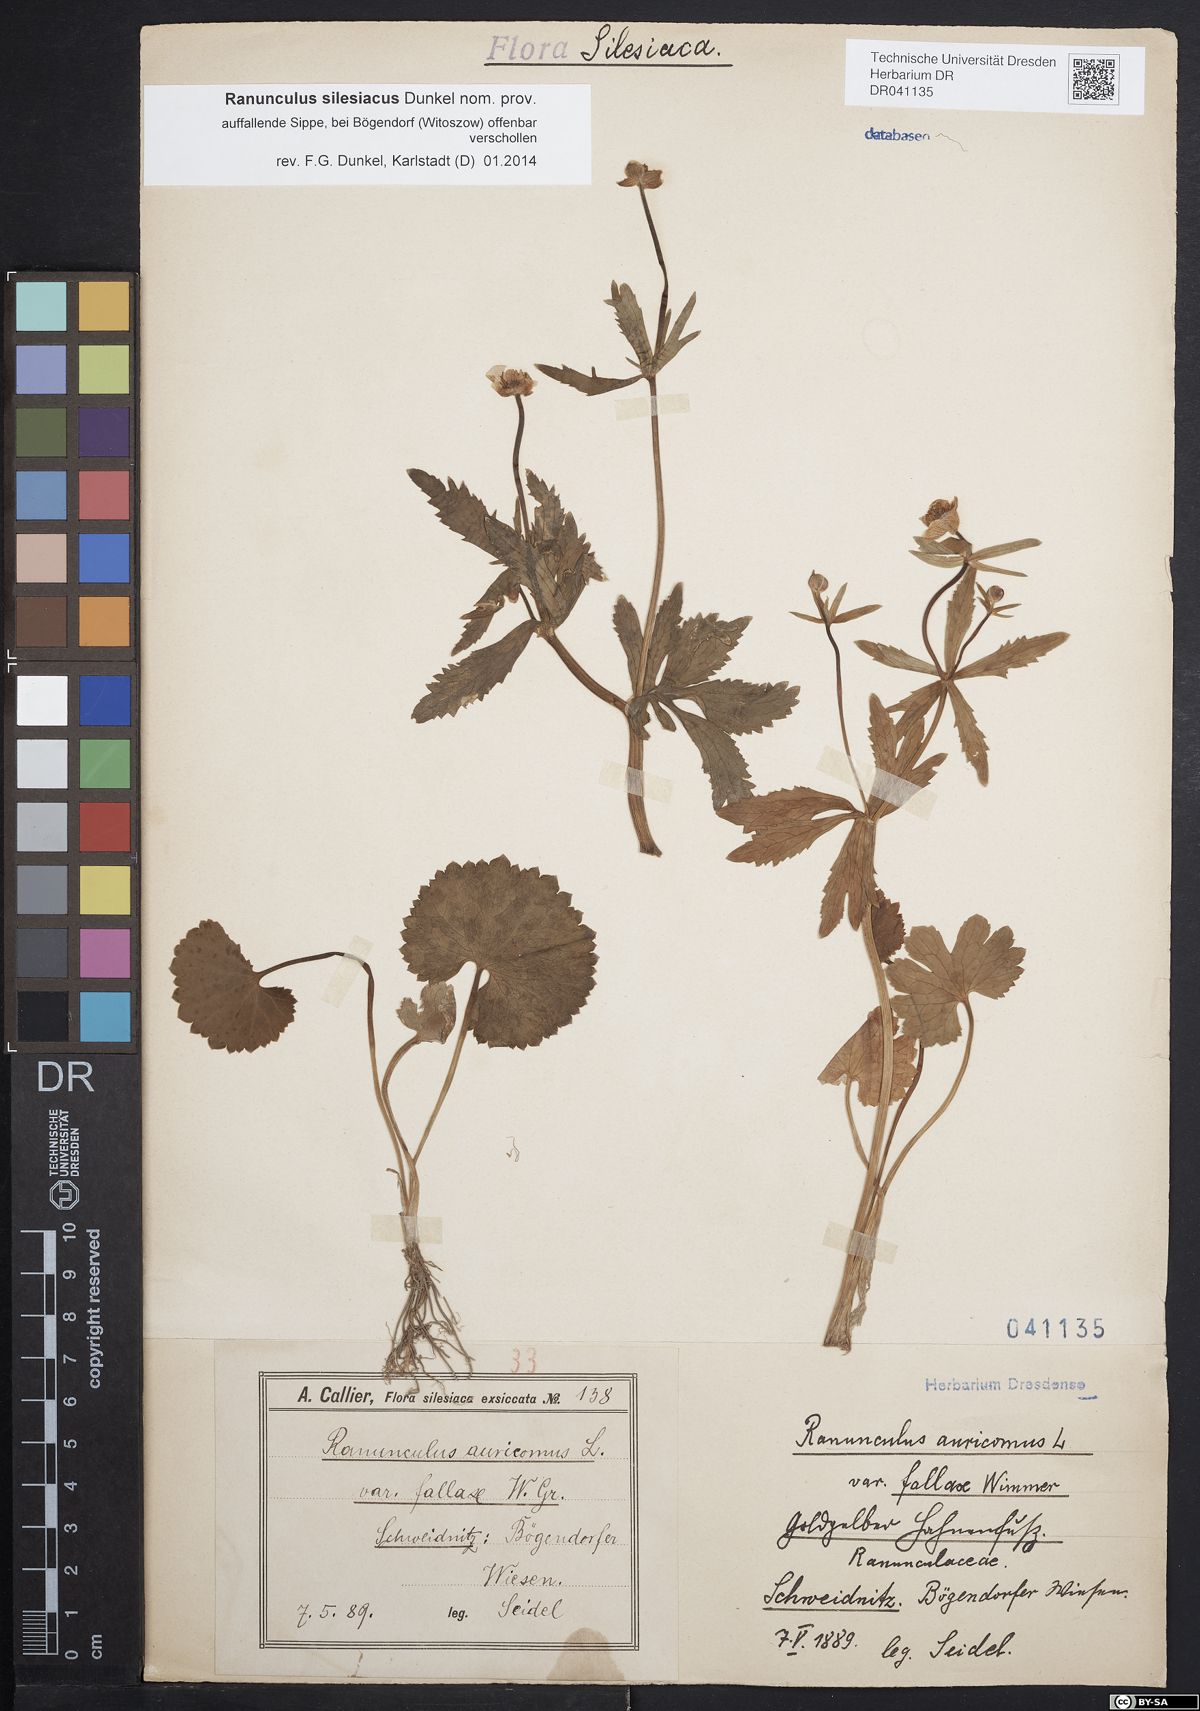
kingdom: Plantae
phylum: Tracheophyta
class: Magnoliopsida
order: Ranunculales
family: Ranunculaceae
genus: Ranunculus
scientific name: Ranunculus auricomus
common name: Goldilocks buttercup
